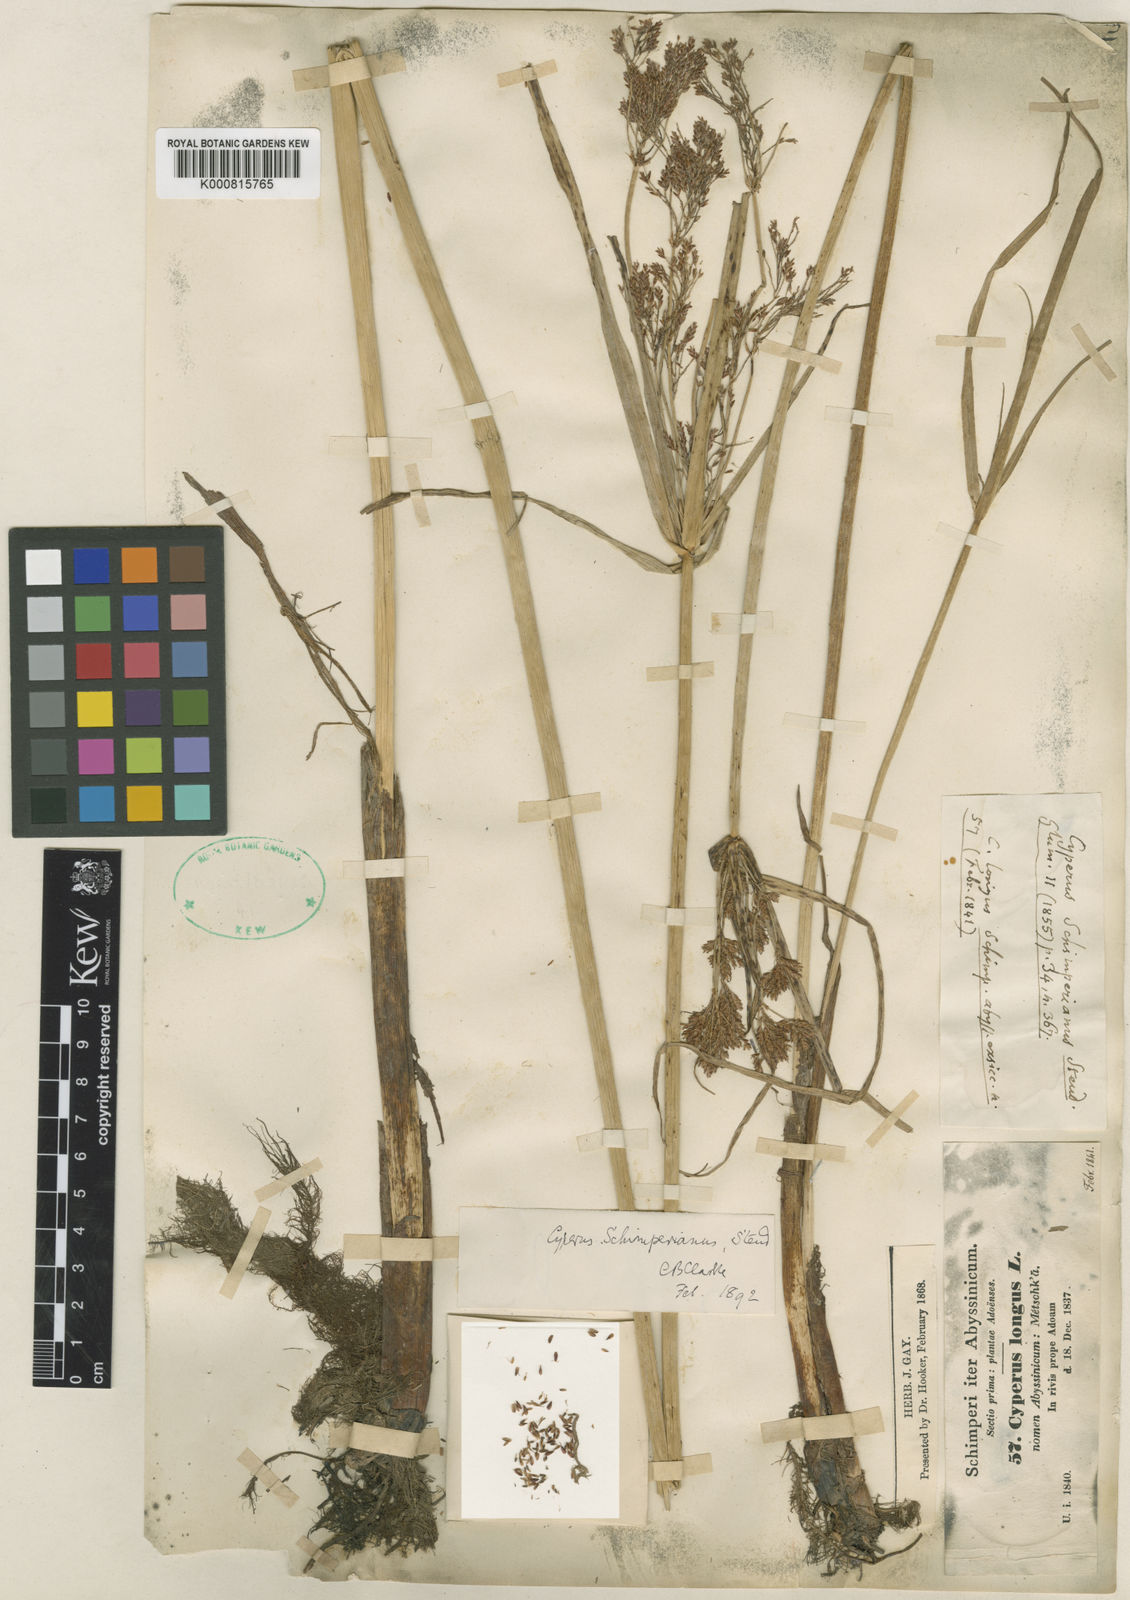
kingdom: Plantae
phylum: Tracheophyta
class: Liliopsida
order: Poales
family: Cyperaceae
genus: Cyperus
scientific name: Cyperus schimperianus
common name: Schimper flatsedge
